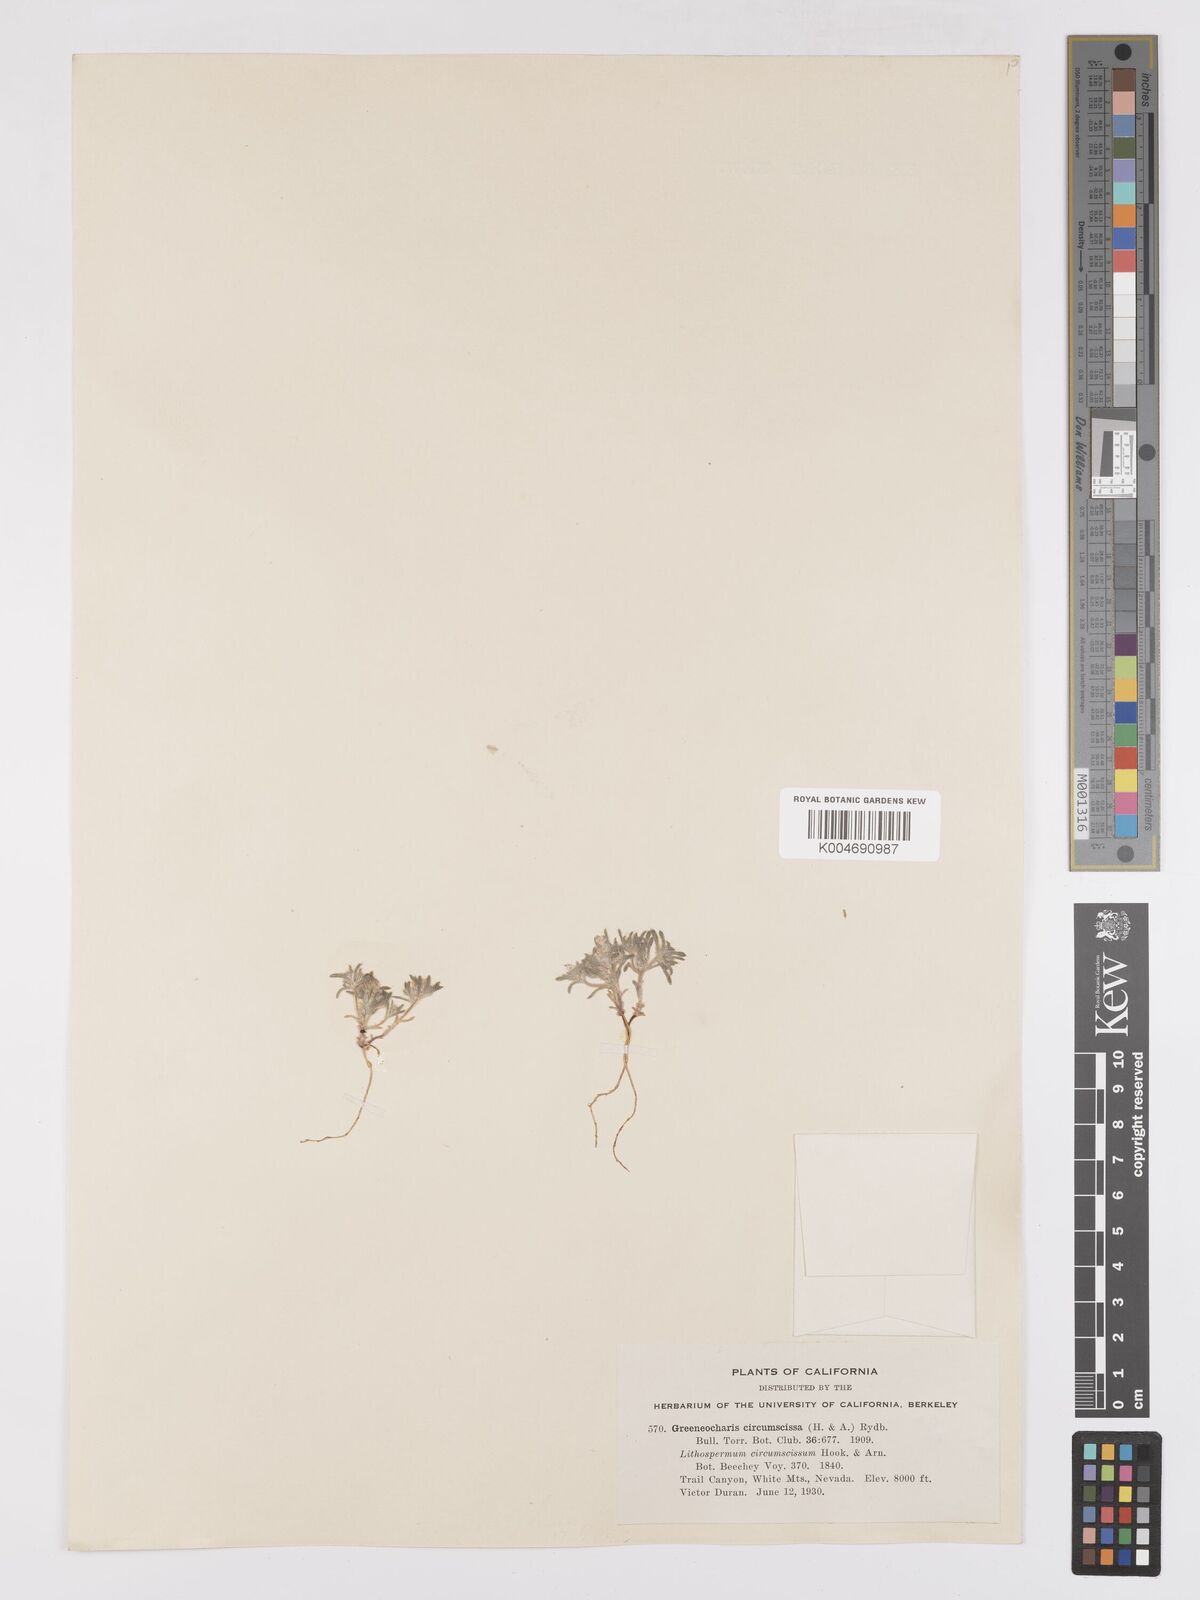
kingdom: Plantae
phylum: Tracheophyta
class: Magnoliopsida
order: Boraginales
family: Boraginaceae
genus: Greeneocharis
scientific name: Greeneocharis circumscissa
